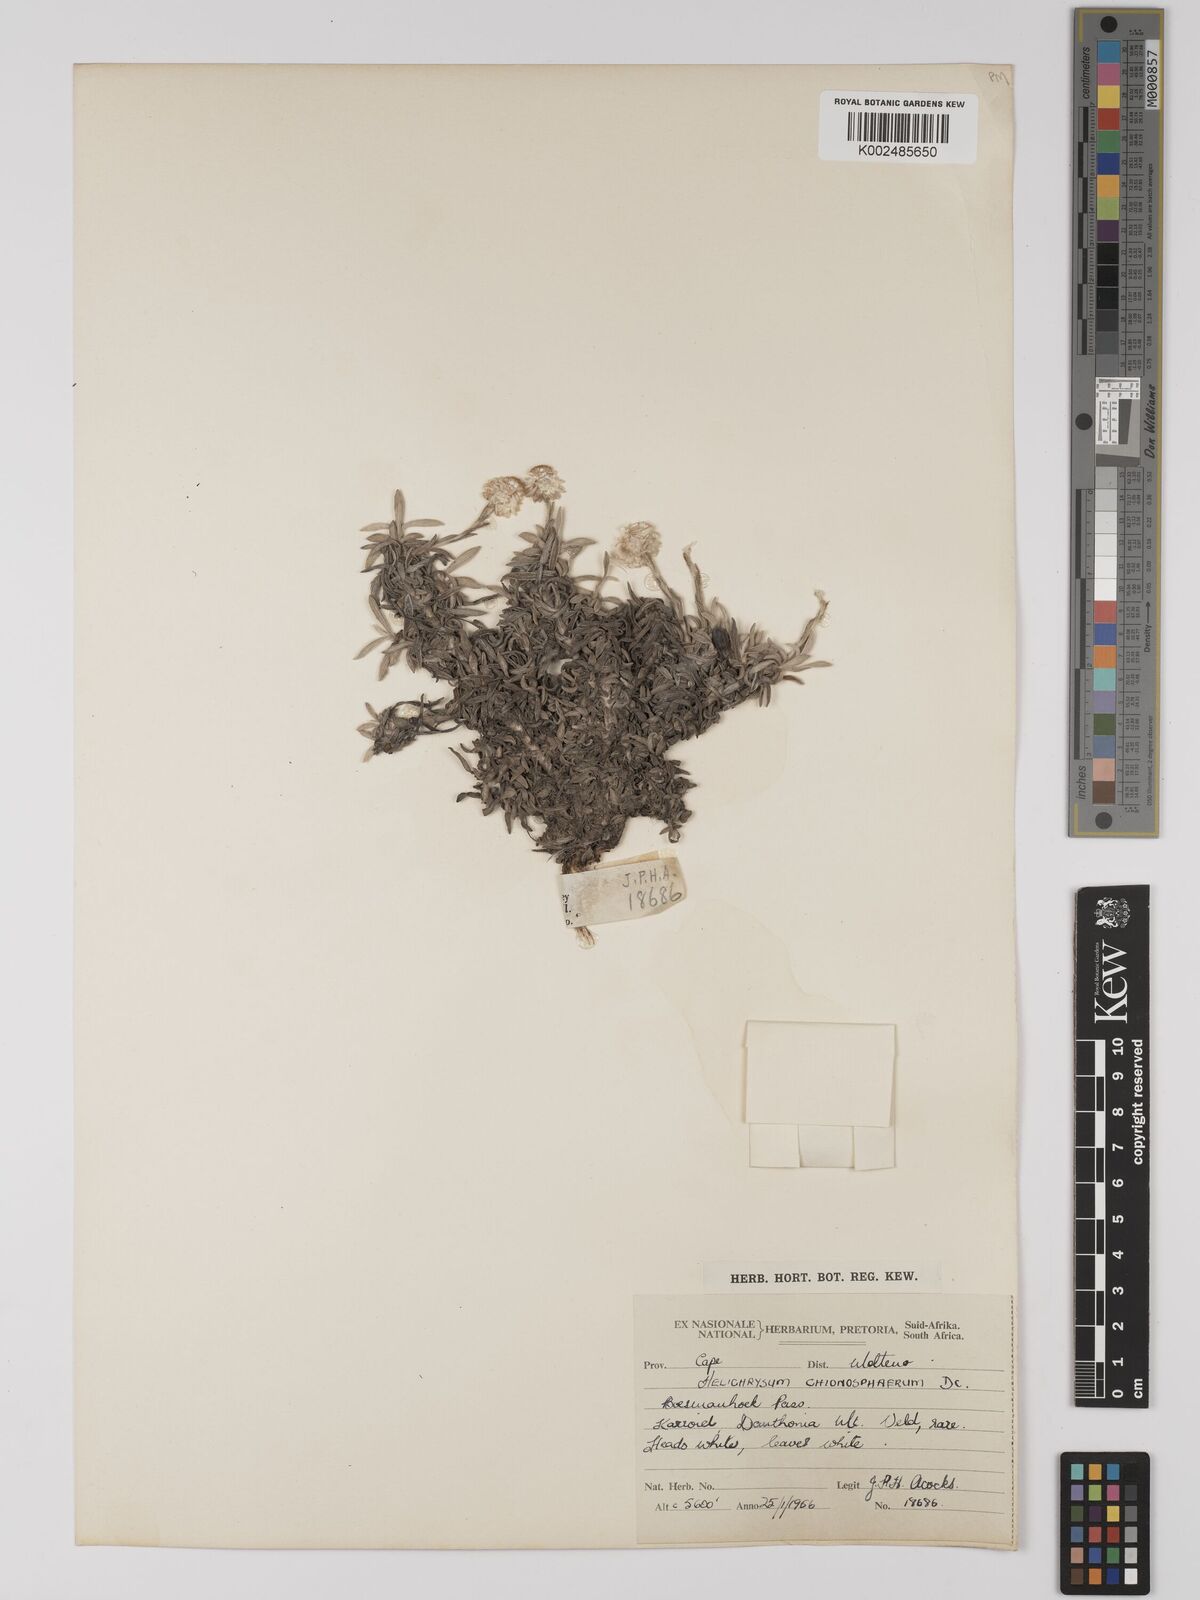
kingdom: Plantae
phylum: Tracheophyta
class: Magnoliopsida
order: Asterales
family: Asteraceae
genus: Helichrysum
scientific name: Helichrysum chionosphaerum
